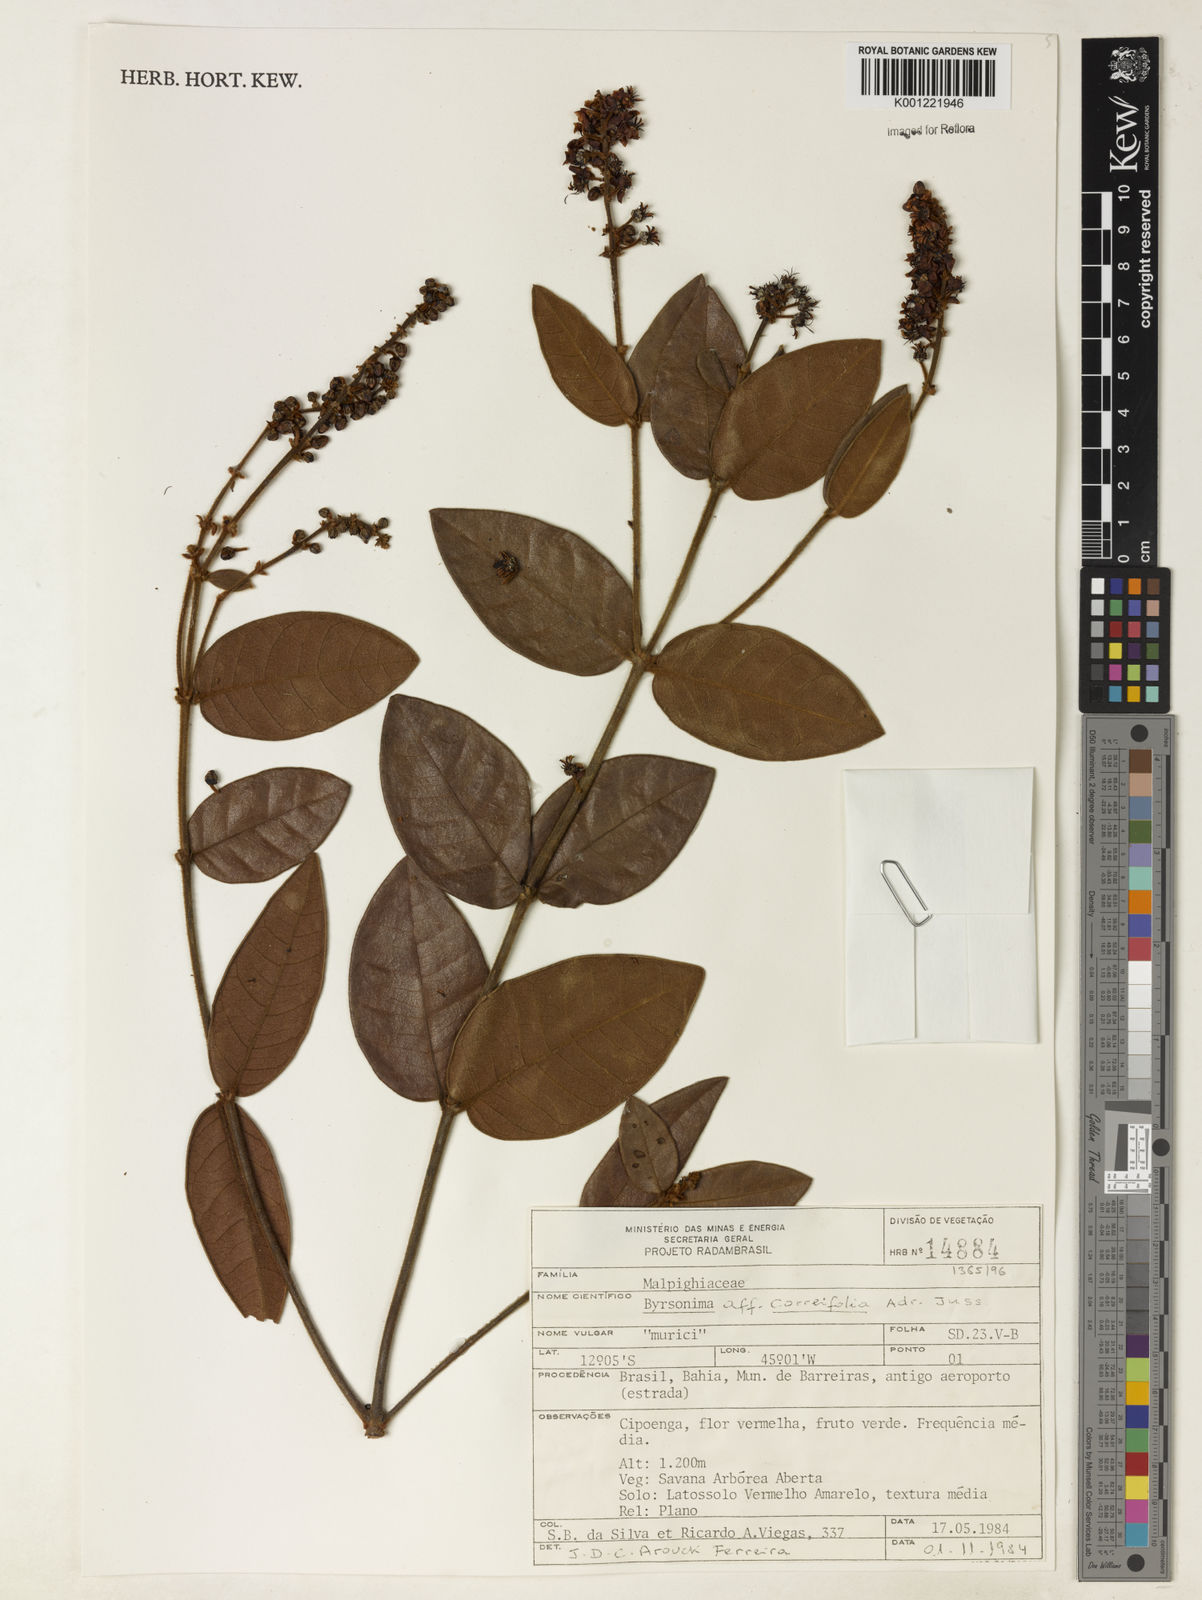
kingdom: Plantae
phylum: Tracheophyta
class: Magnoliopsida
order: Malpighiales
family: Malpighiaceae
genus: Byrsonima
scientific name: Byrsonima correifolia
